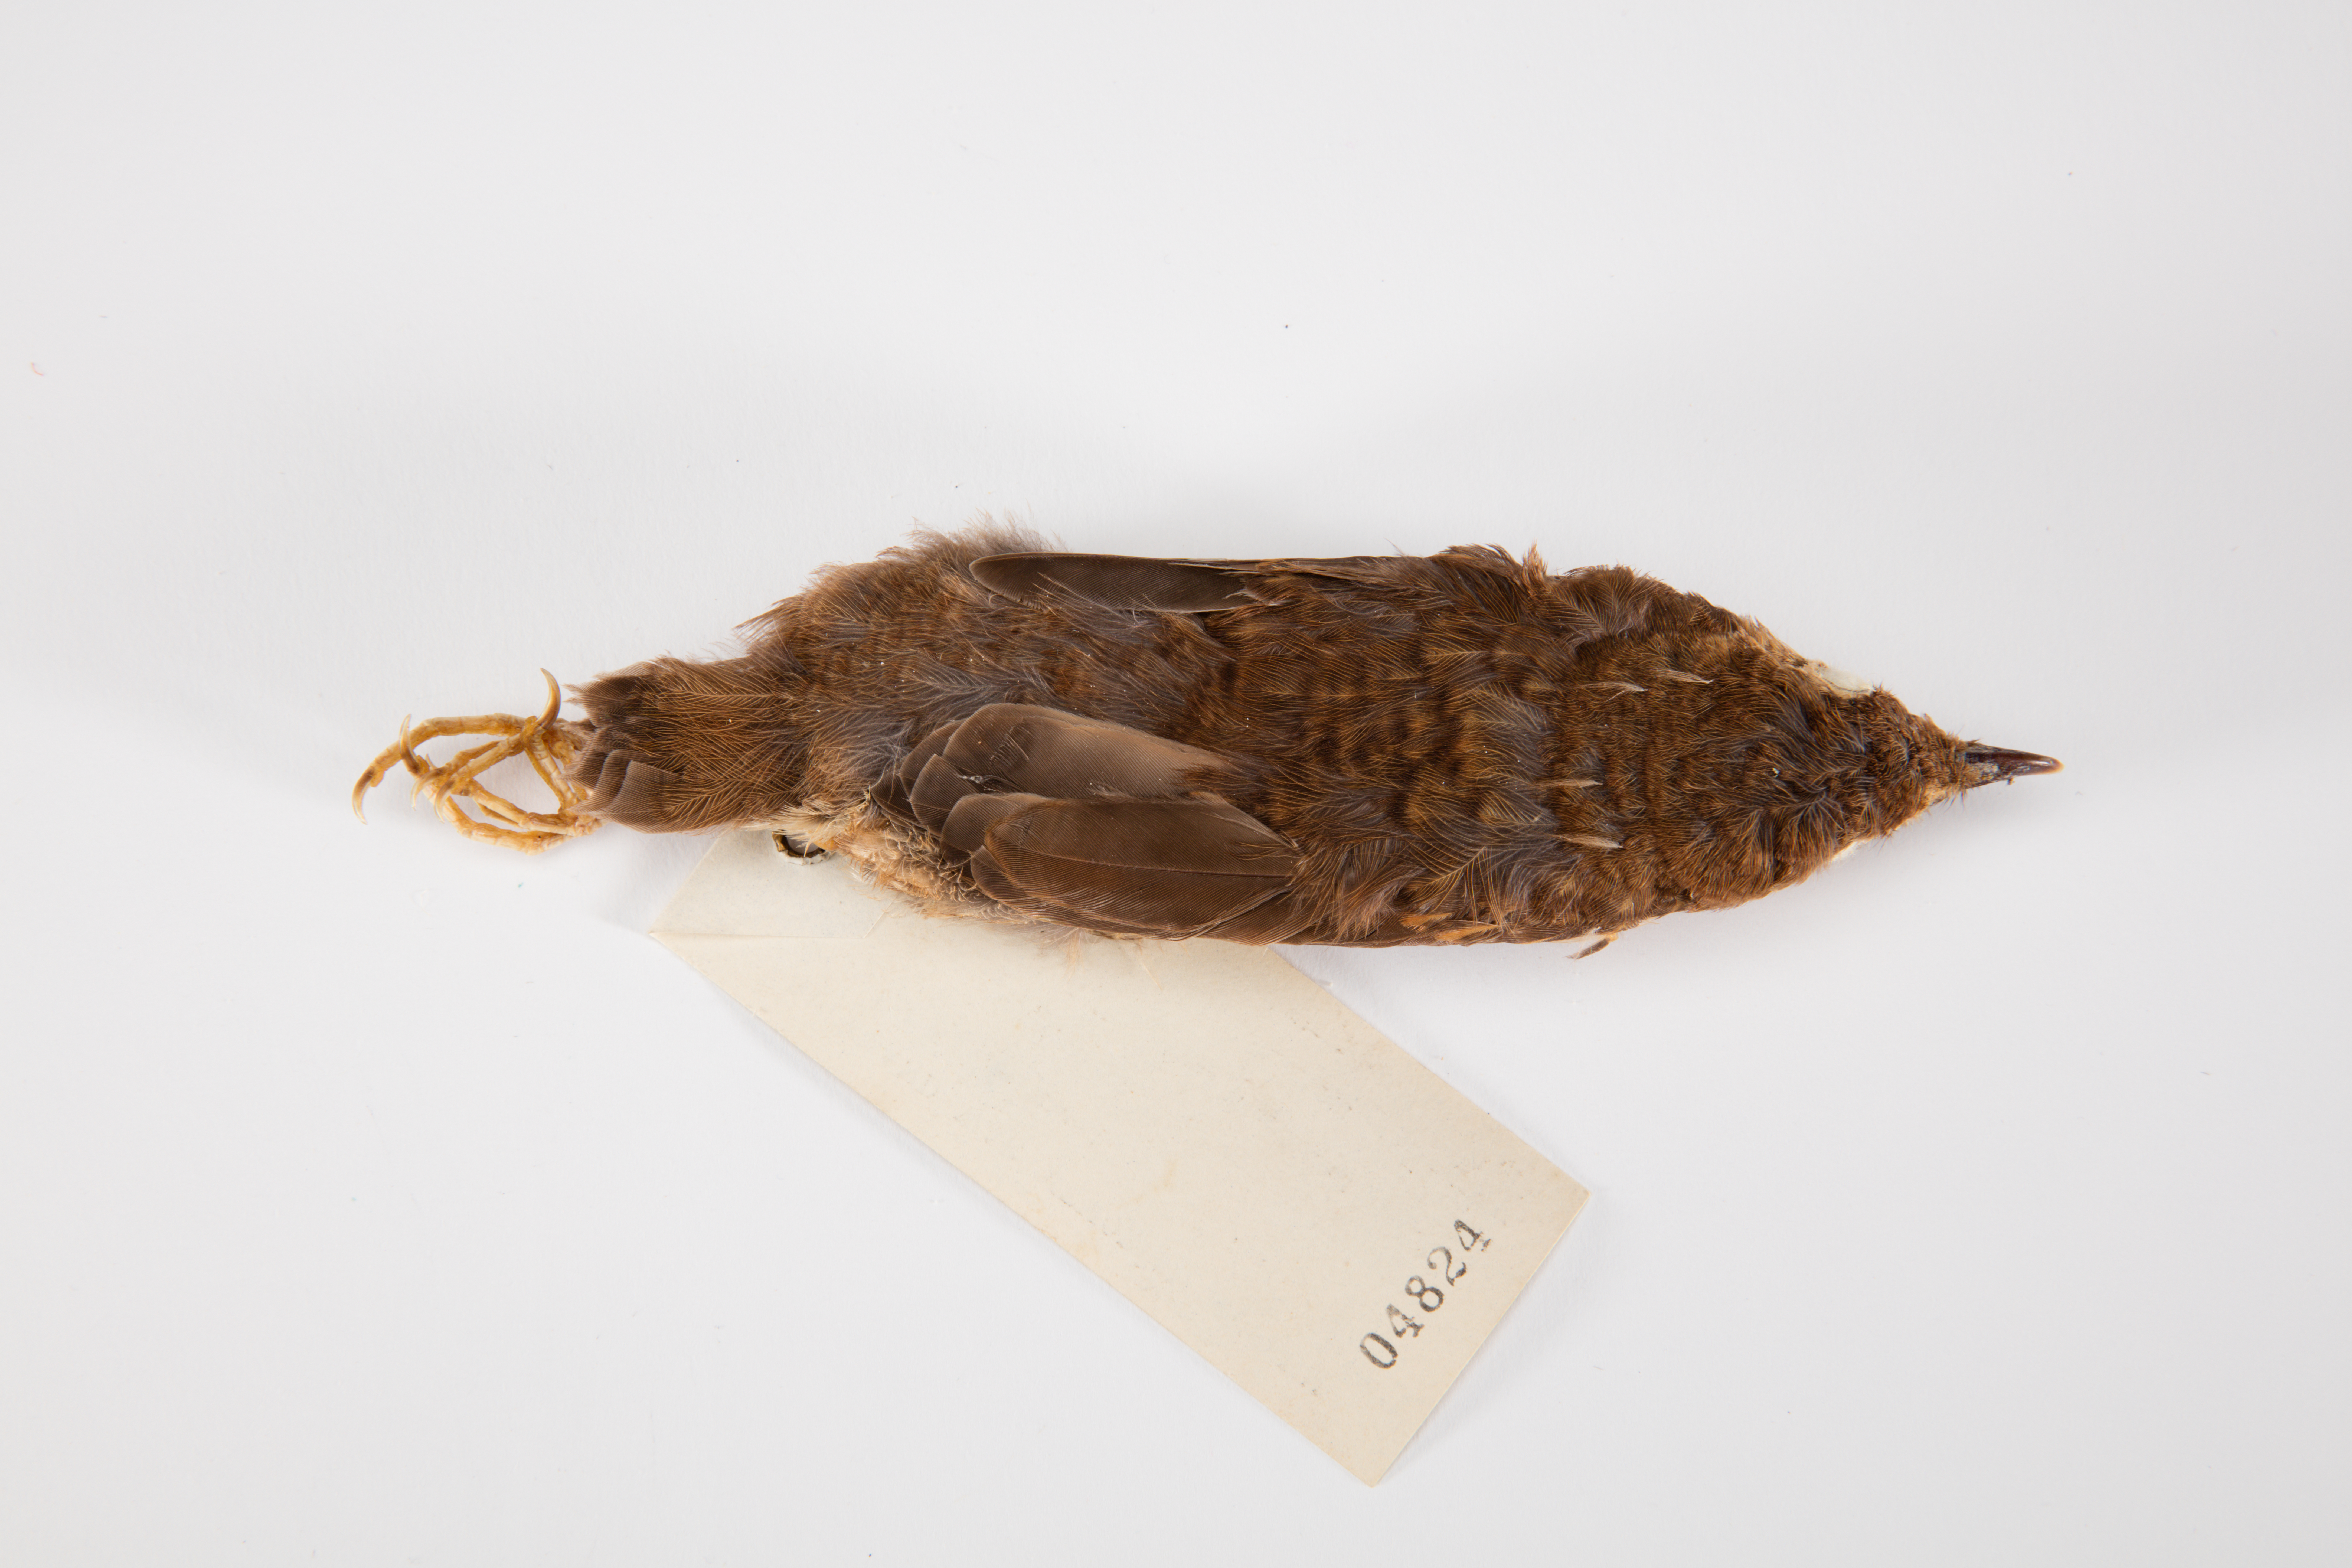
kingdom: Animalia
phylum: Chordata
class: Aves
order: Passeriformes
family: Turdidae
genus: Turdus
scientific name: Turdus philomelos
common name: Song thrush
